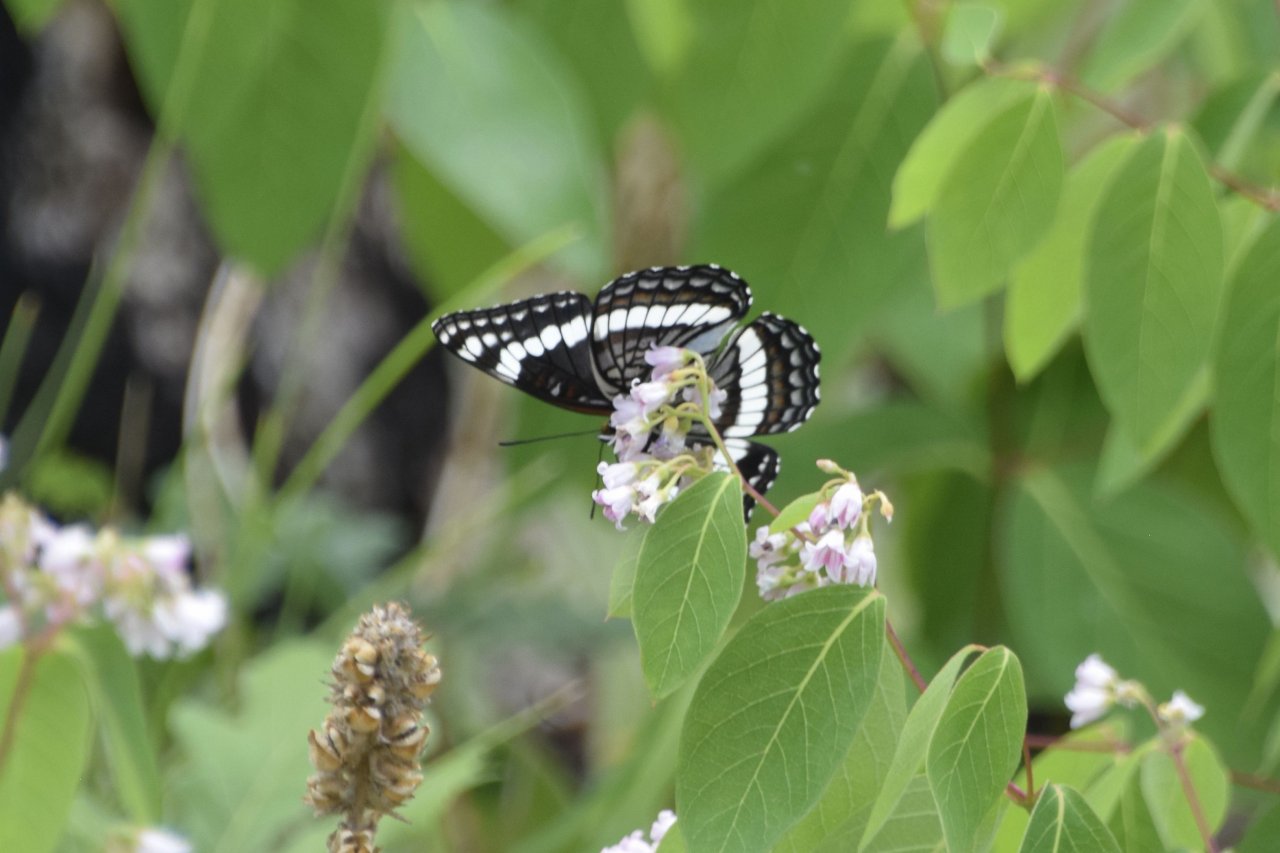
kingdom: Animalia
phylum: Arthropoda
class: Insecta
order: Lepidoptera
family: Nymphalidae
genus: Limenitis
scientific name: Limenitis weidemeyerii
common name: Weidemeyer's Admiral
